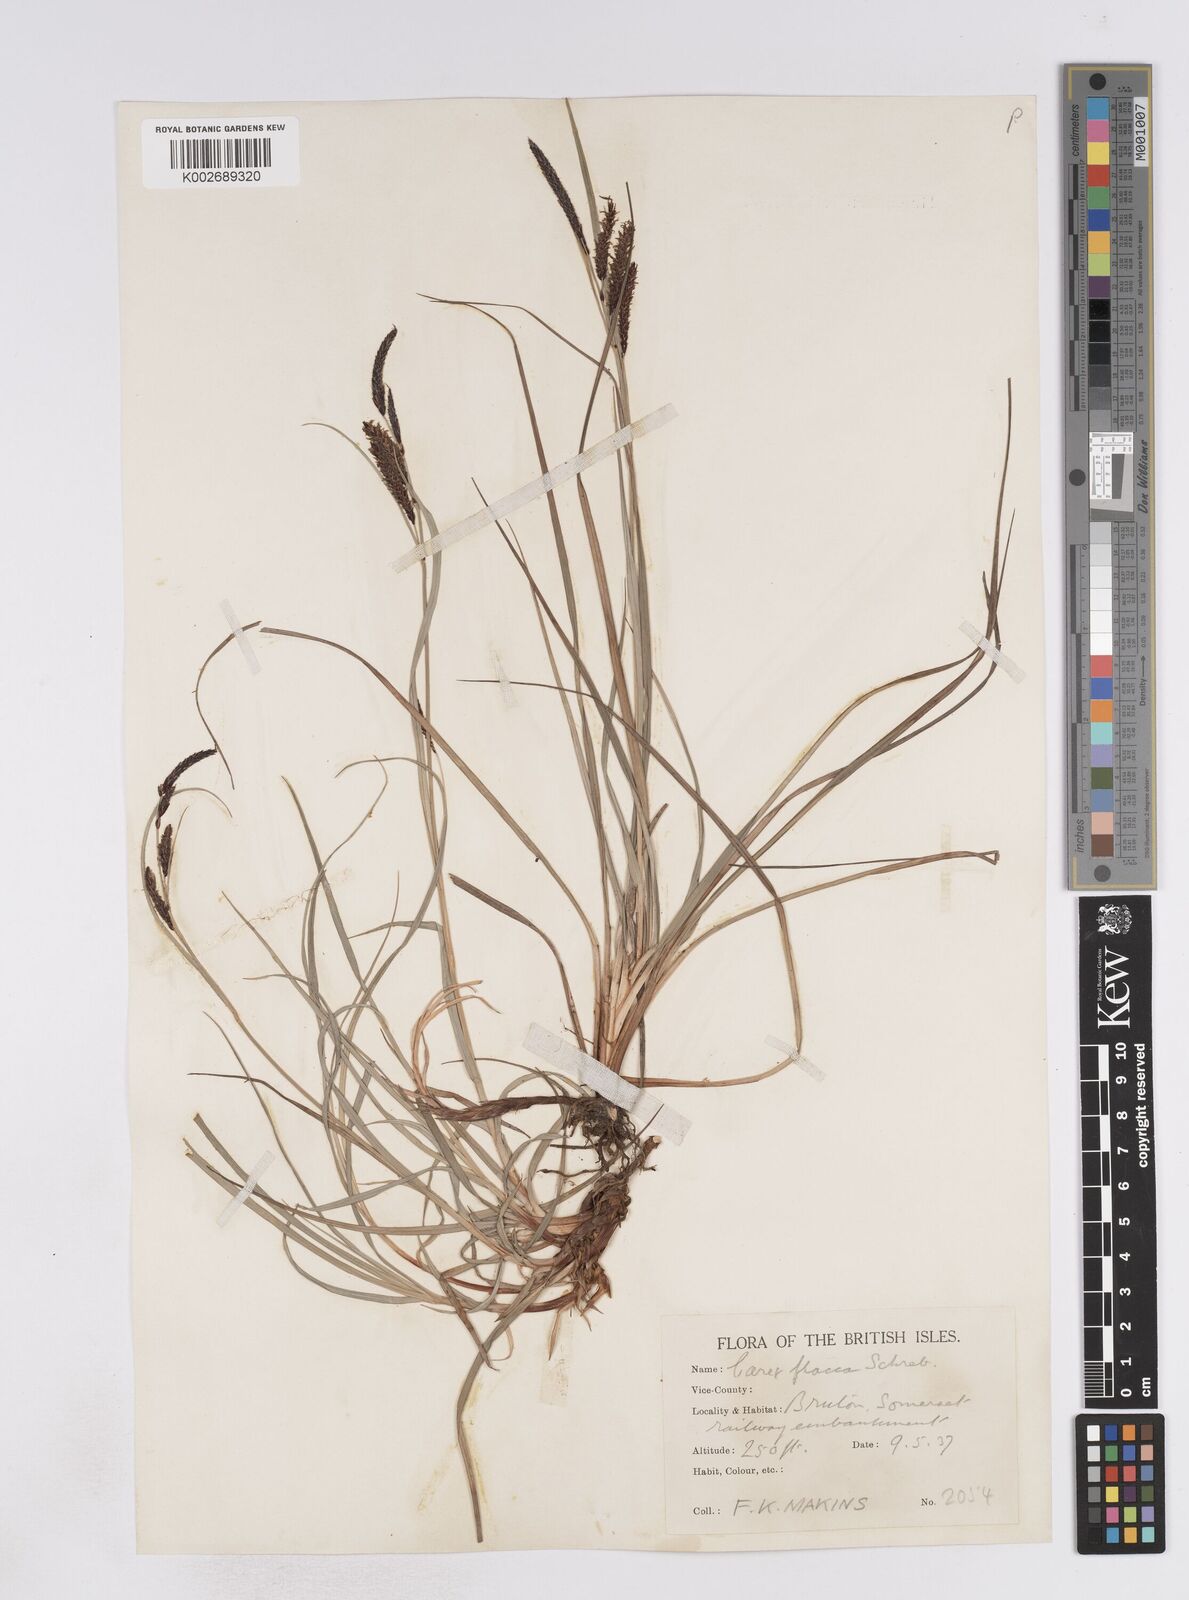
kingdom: Plantae
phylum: Tracheophyta
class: Liliopsida
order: Poales
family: Cyperaceae
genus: Carex
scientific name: Carex flacca
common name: Glaucous sedge
